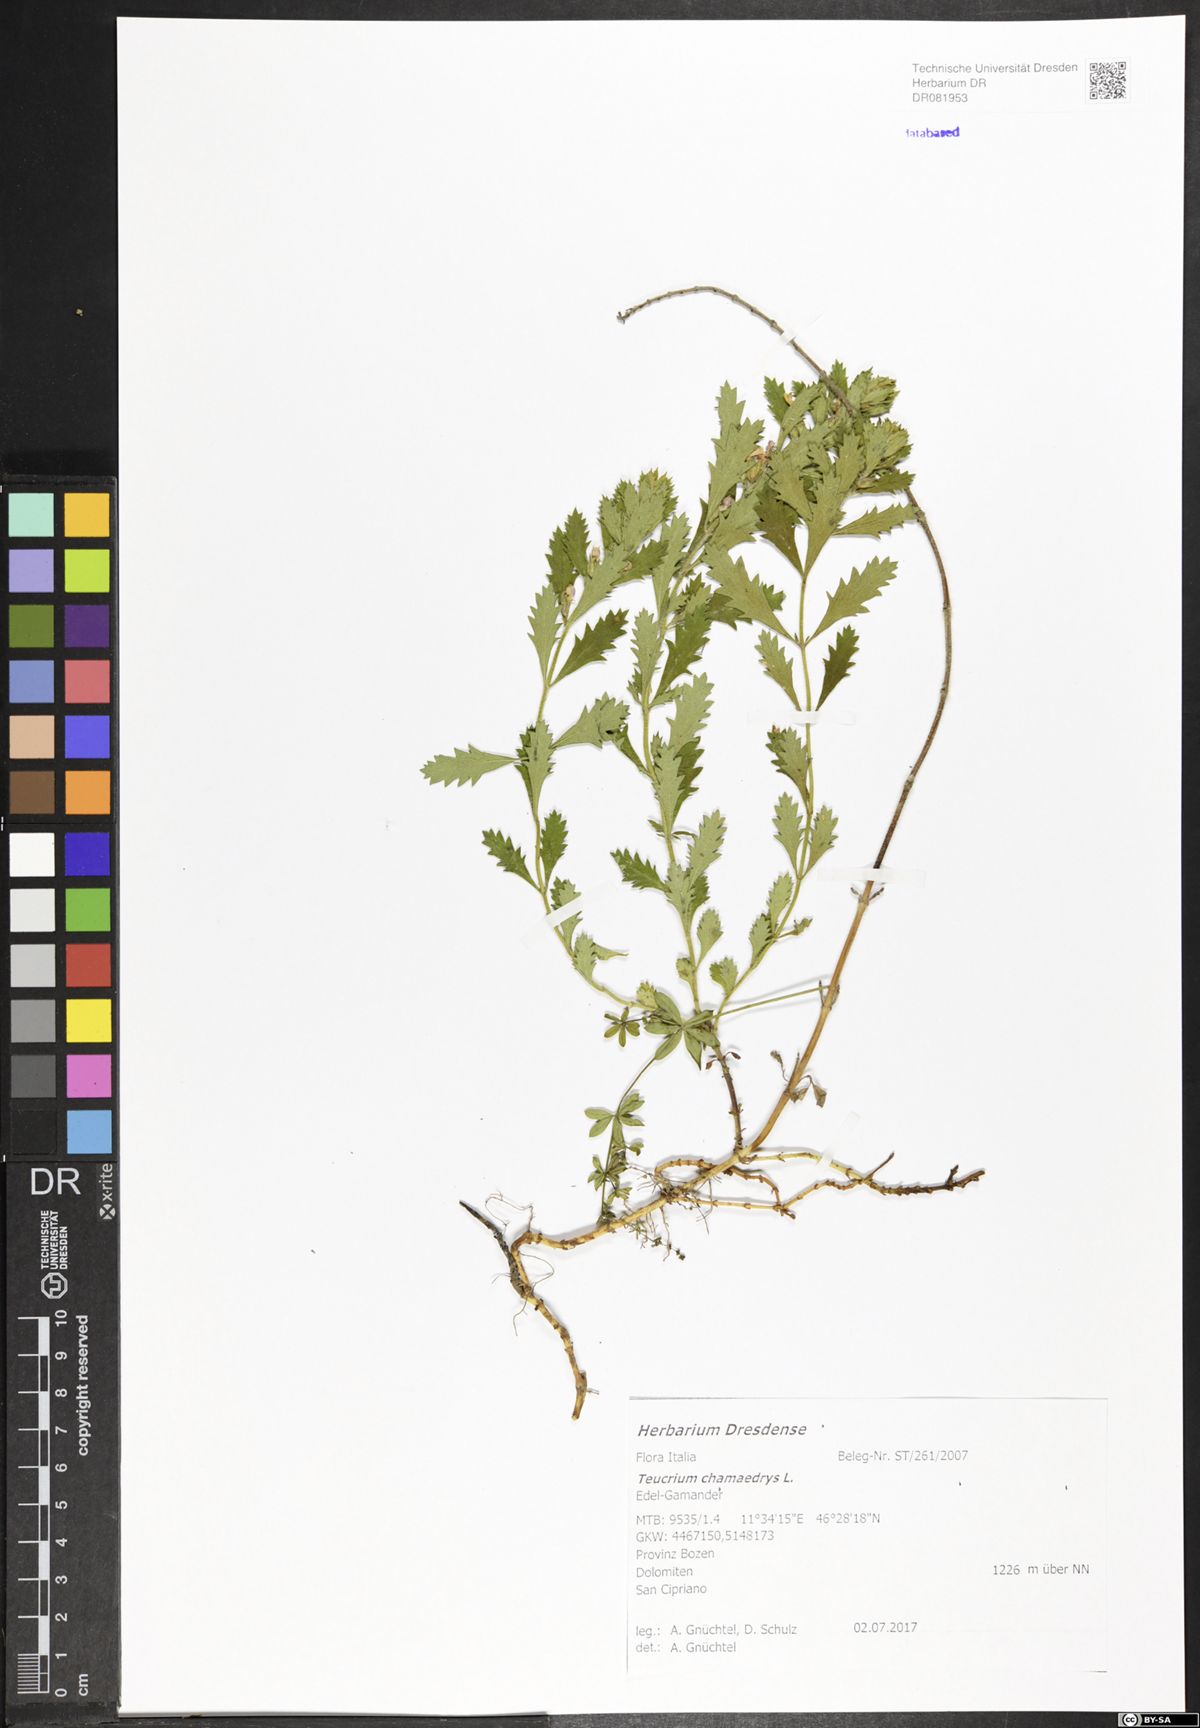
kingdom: Plantae
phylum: Tracheophyta
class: Magnoliopsida
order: Lamiales
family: Lamiaceae
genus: Teucrium
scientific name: Teucrium chamaedrys
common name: Wall germander
